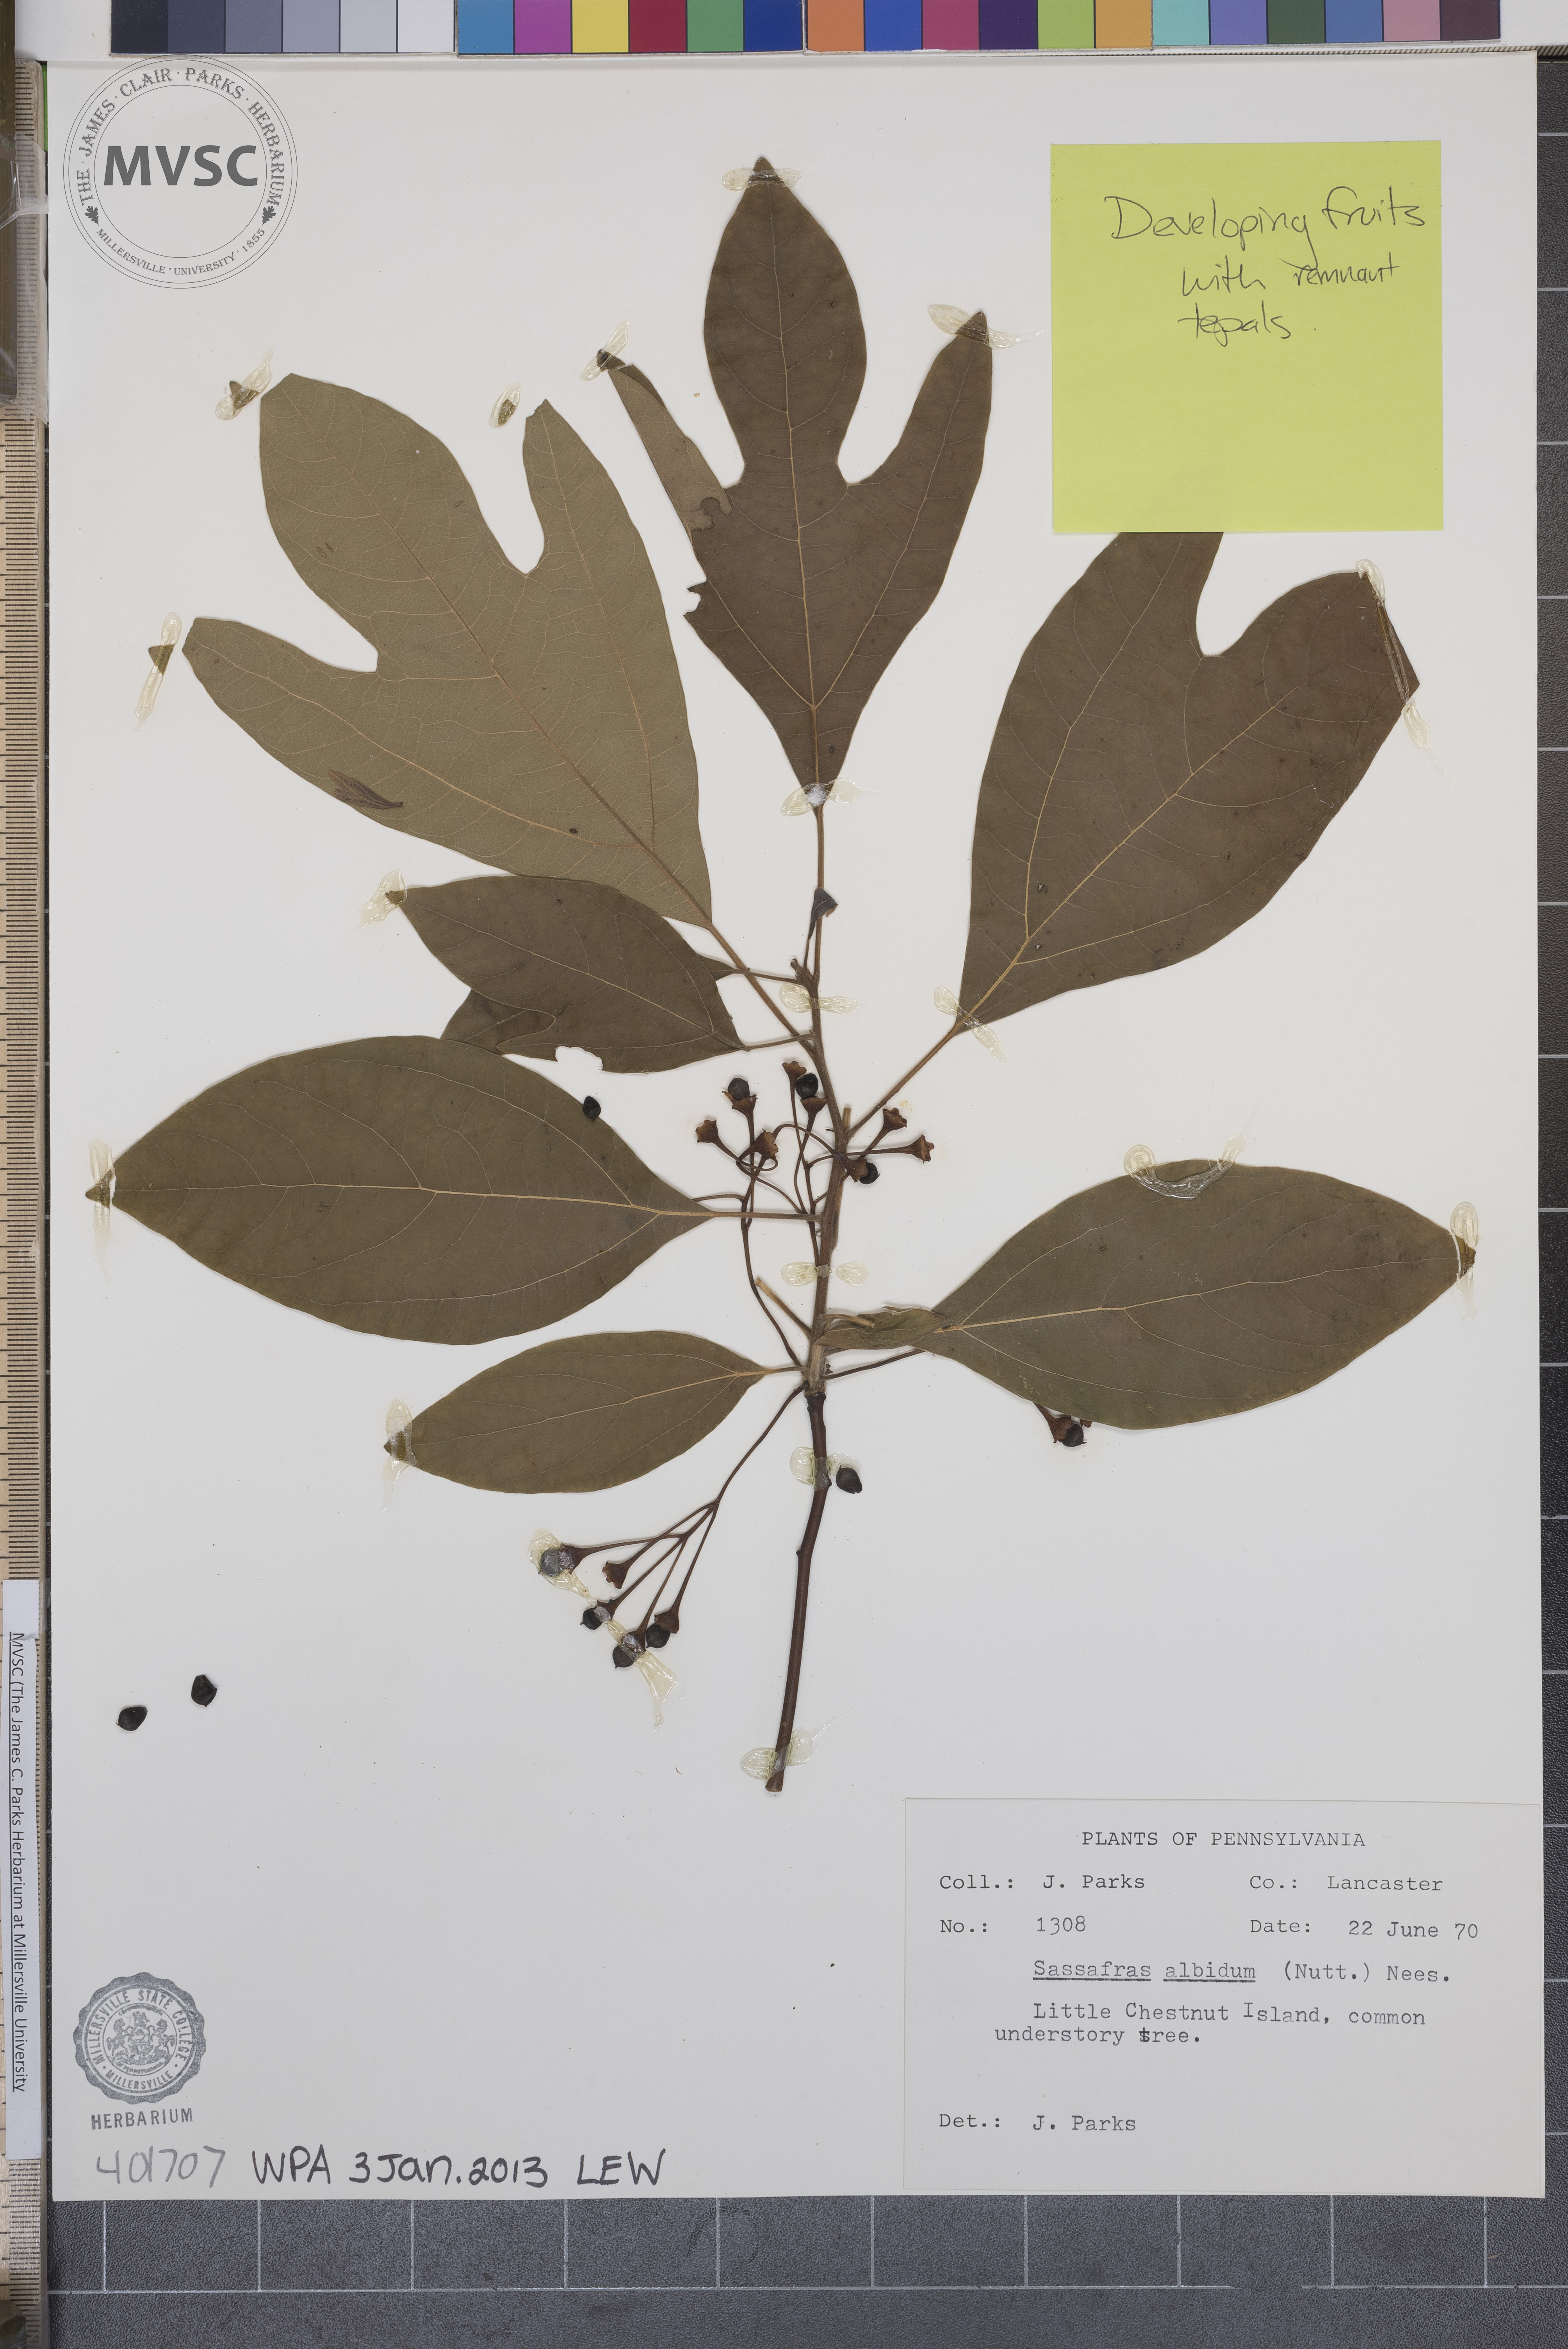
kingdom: Plantae
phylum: Tracheophyta
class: Magnoliopsida
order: Laurales
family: Lauraceae
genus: Sassafras
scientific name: Sassafras albidum
